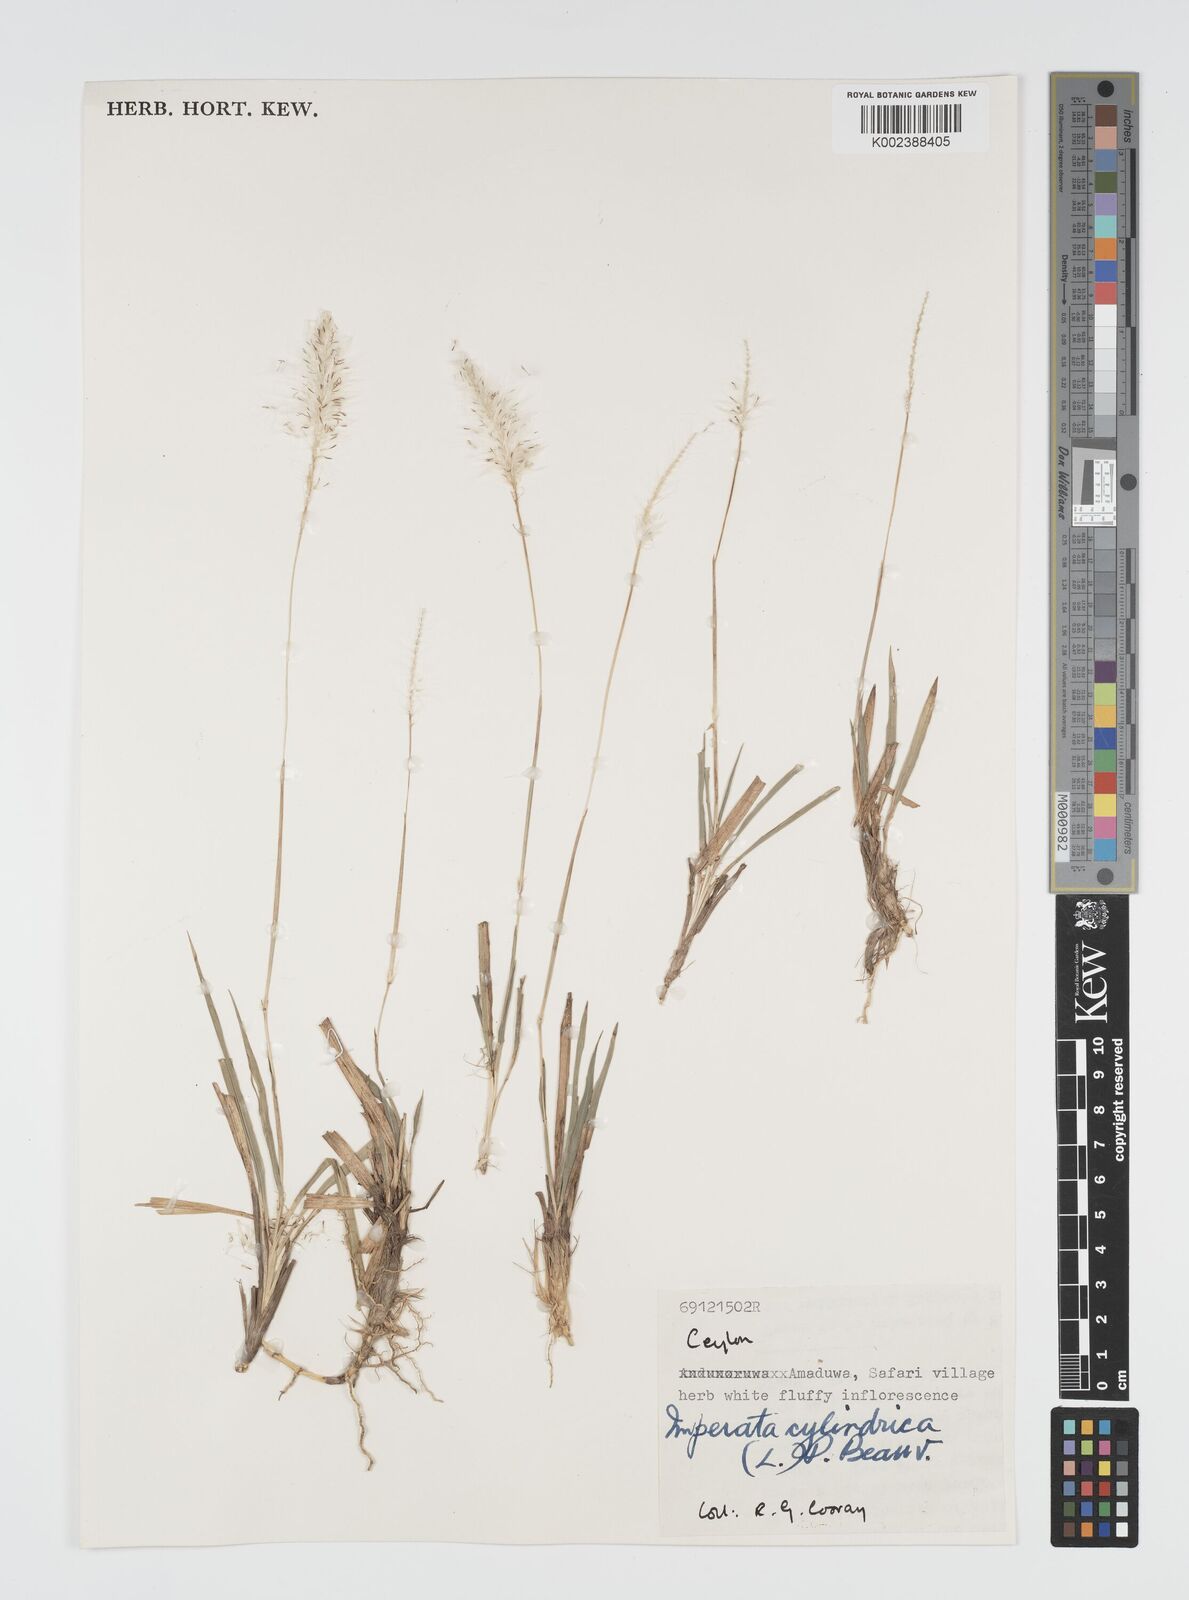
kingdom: Plantae
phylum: Tracheophyta
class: Liliopsida
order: Poales
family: Poaceae
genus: Imperata
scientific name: Imperata cylindrica
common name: Cogongrass
